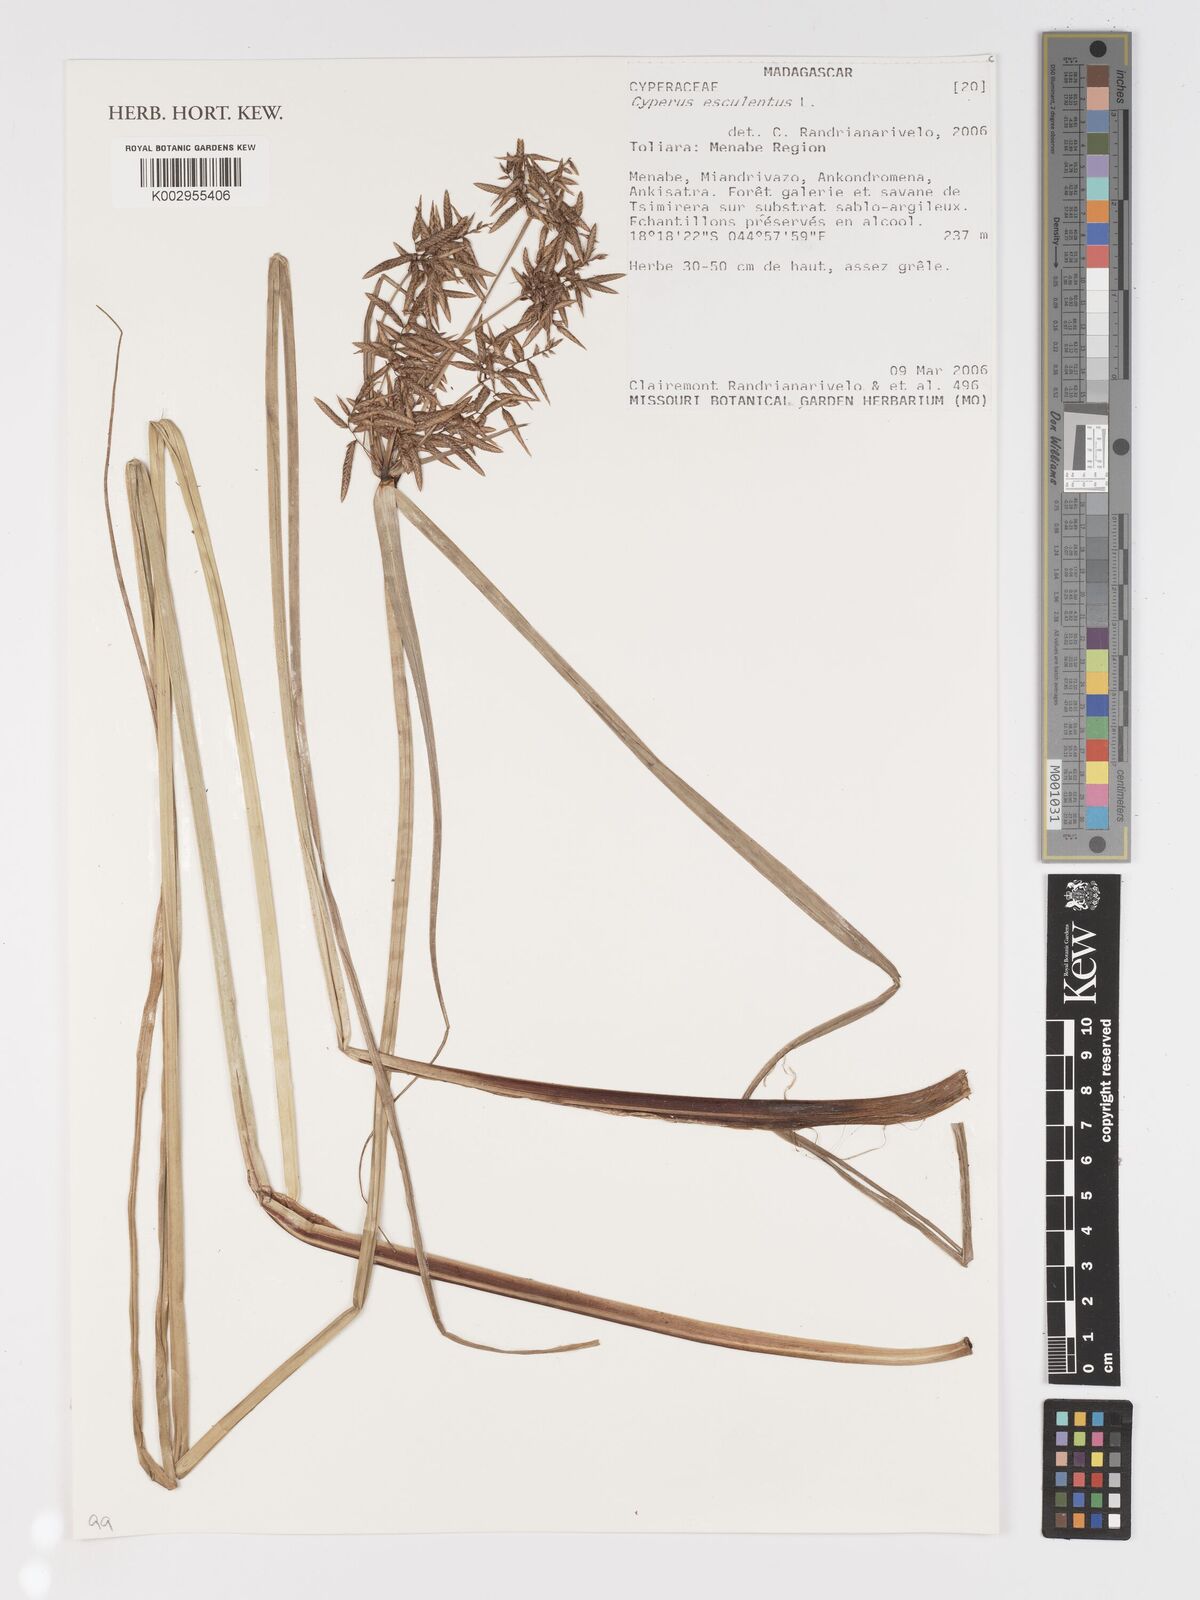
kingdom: Plantae
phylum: Tracheophyta
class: Liliopsida
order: Poales
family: Cyperaceae
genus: Cyperus
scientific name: Cyperus esculentus
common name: Yellow nutsedge
